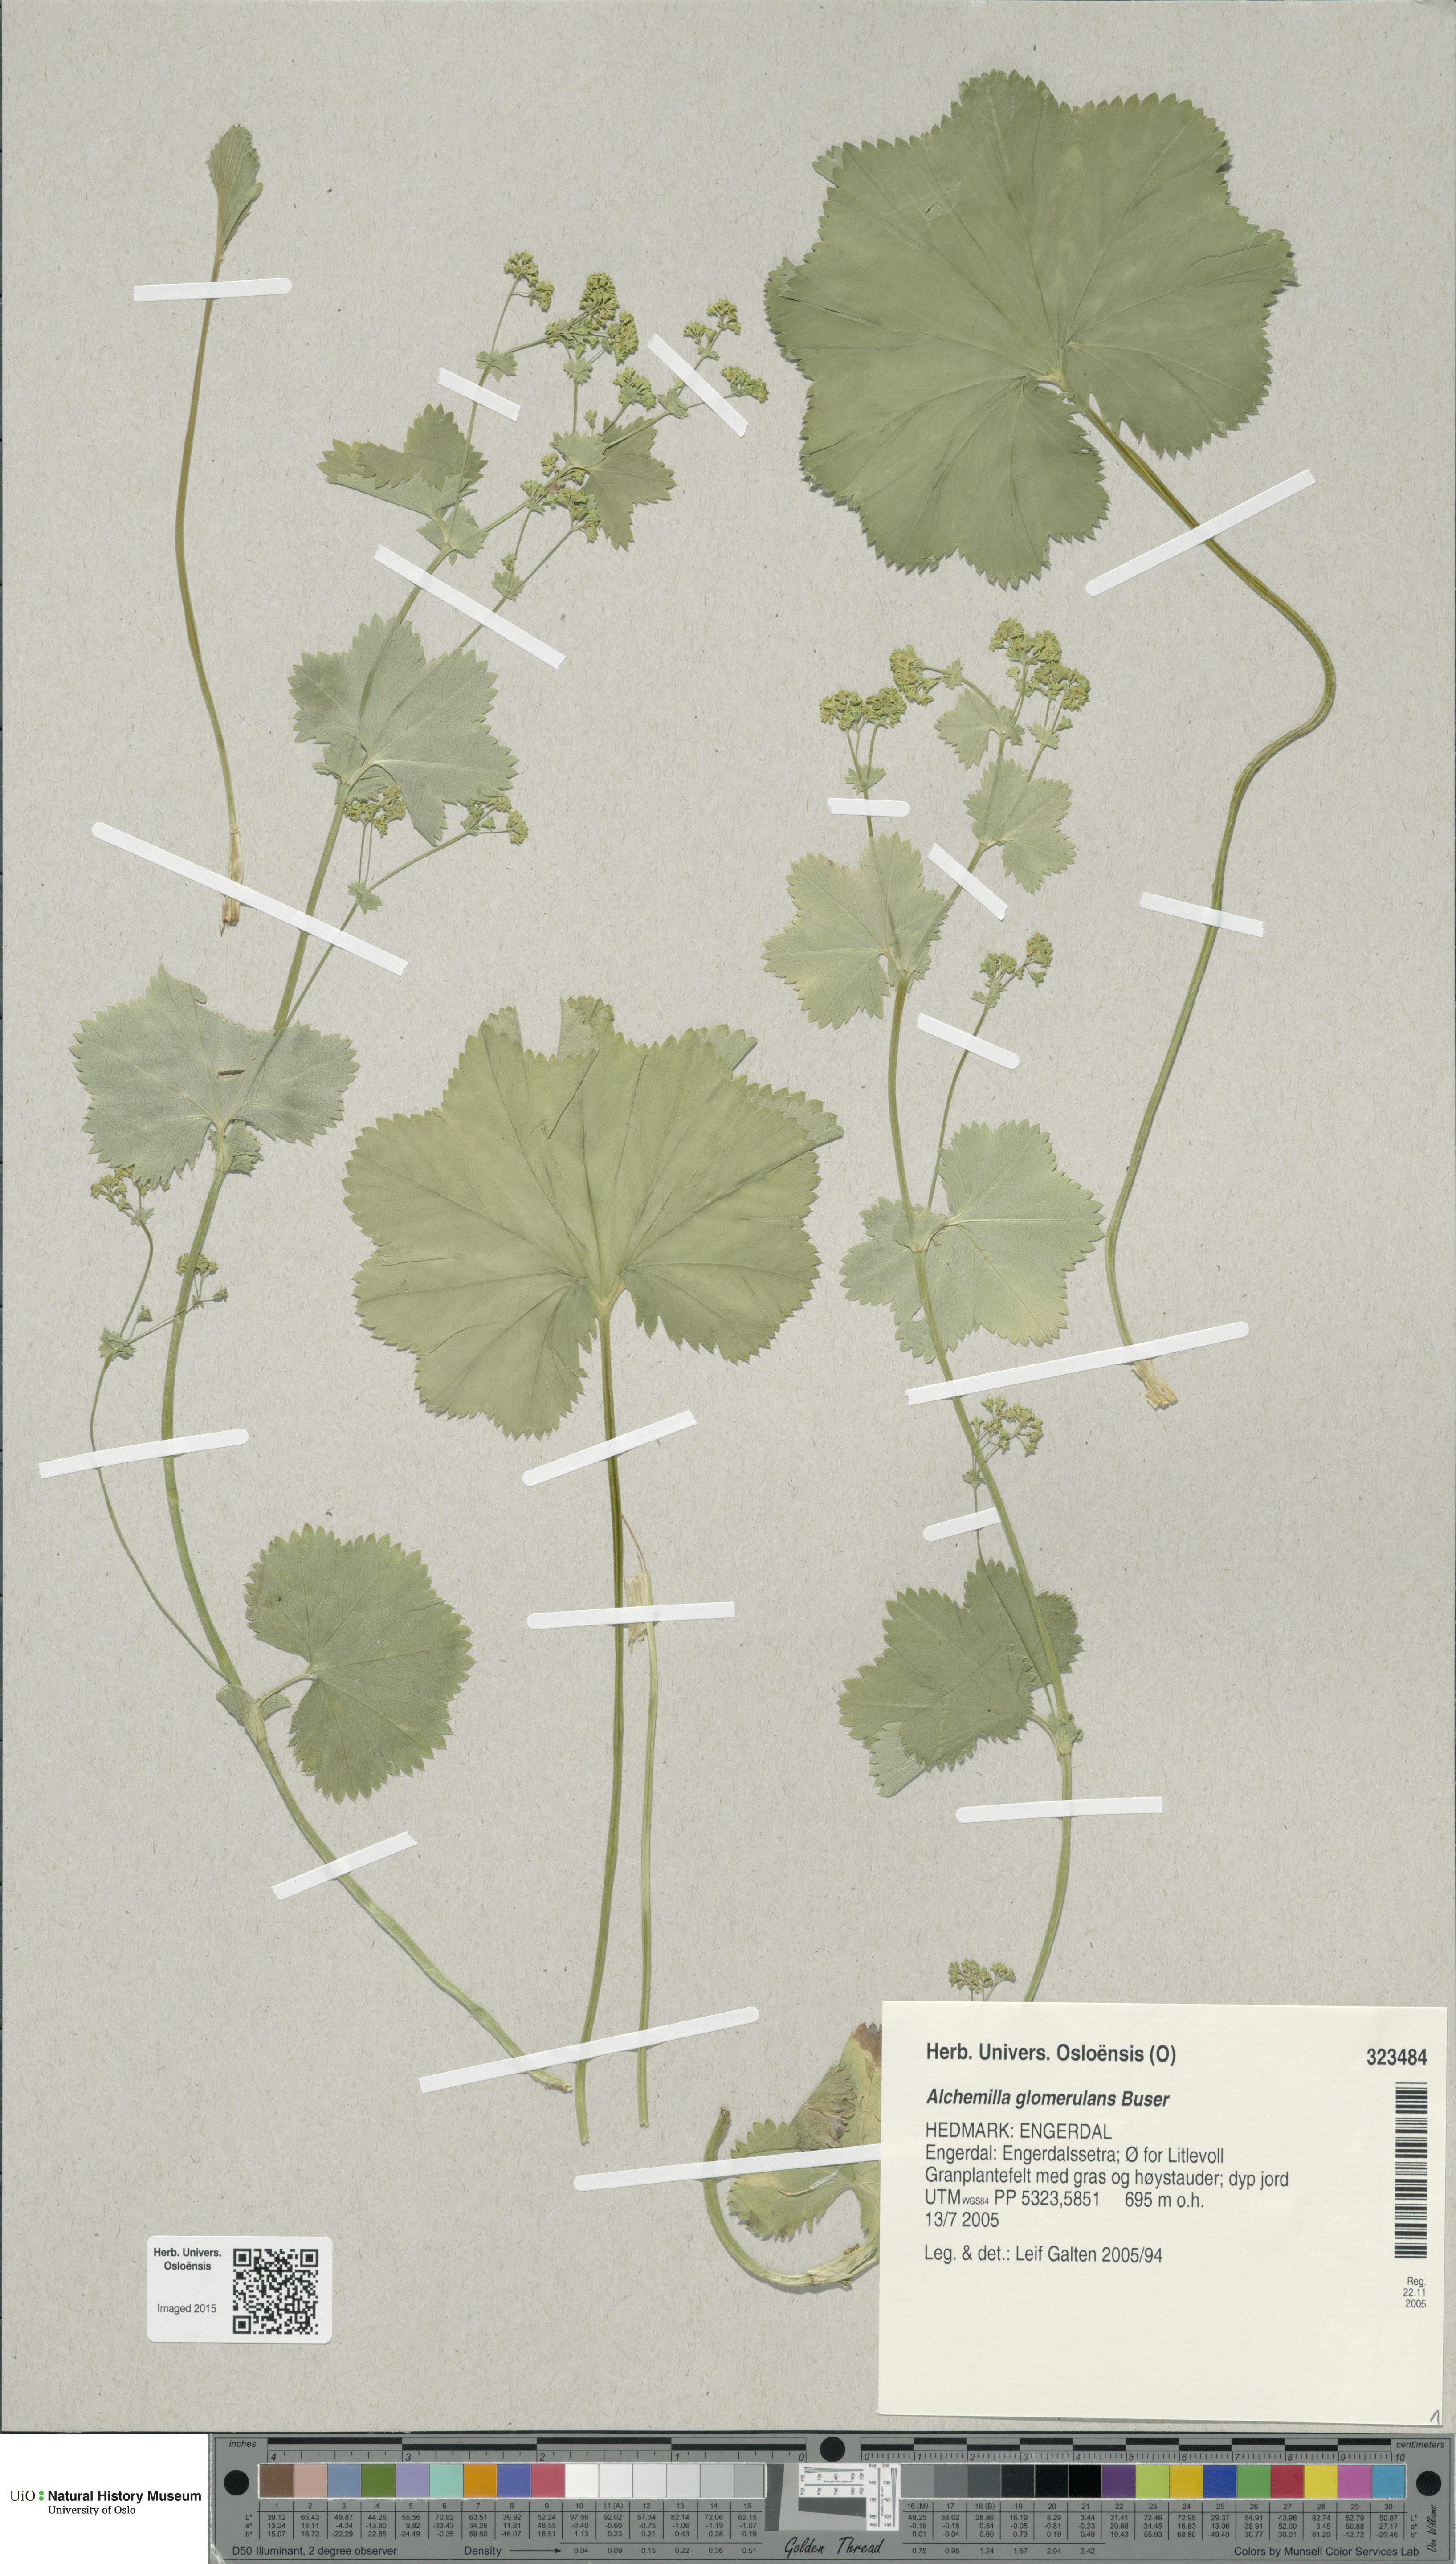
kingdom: Plantae
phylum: Tracheophyta
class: Magnoliopsida
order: Rosales
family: Rosaceae
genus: Alchemilla
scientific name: Alchemilla glomerulans
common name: Clustered lady's mantle
